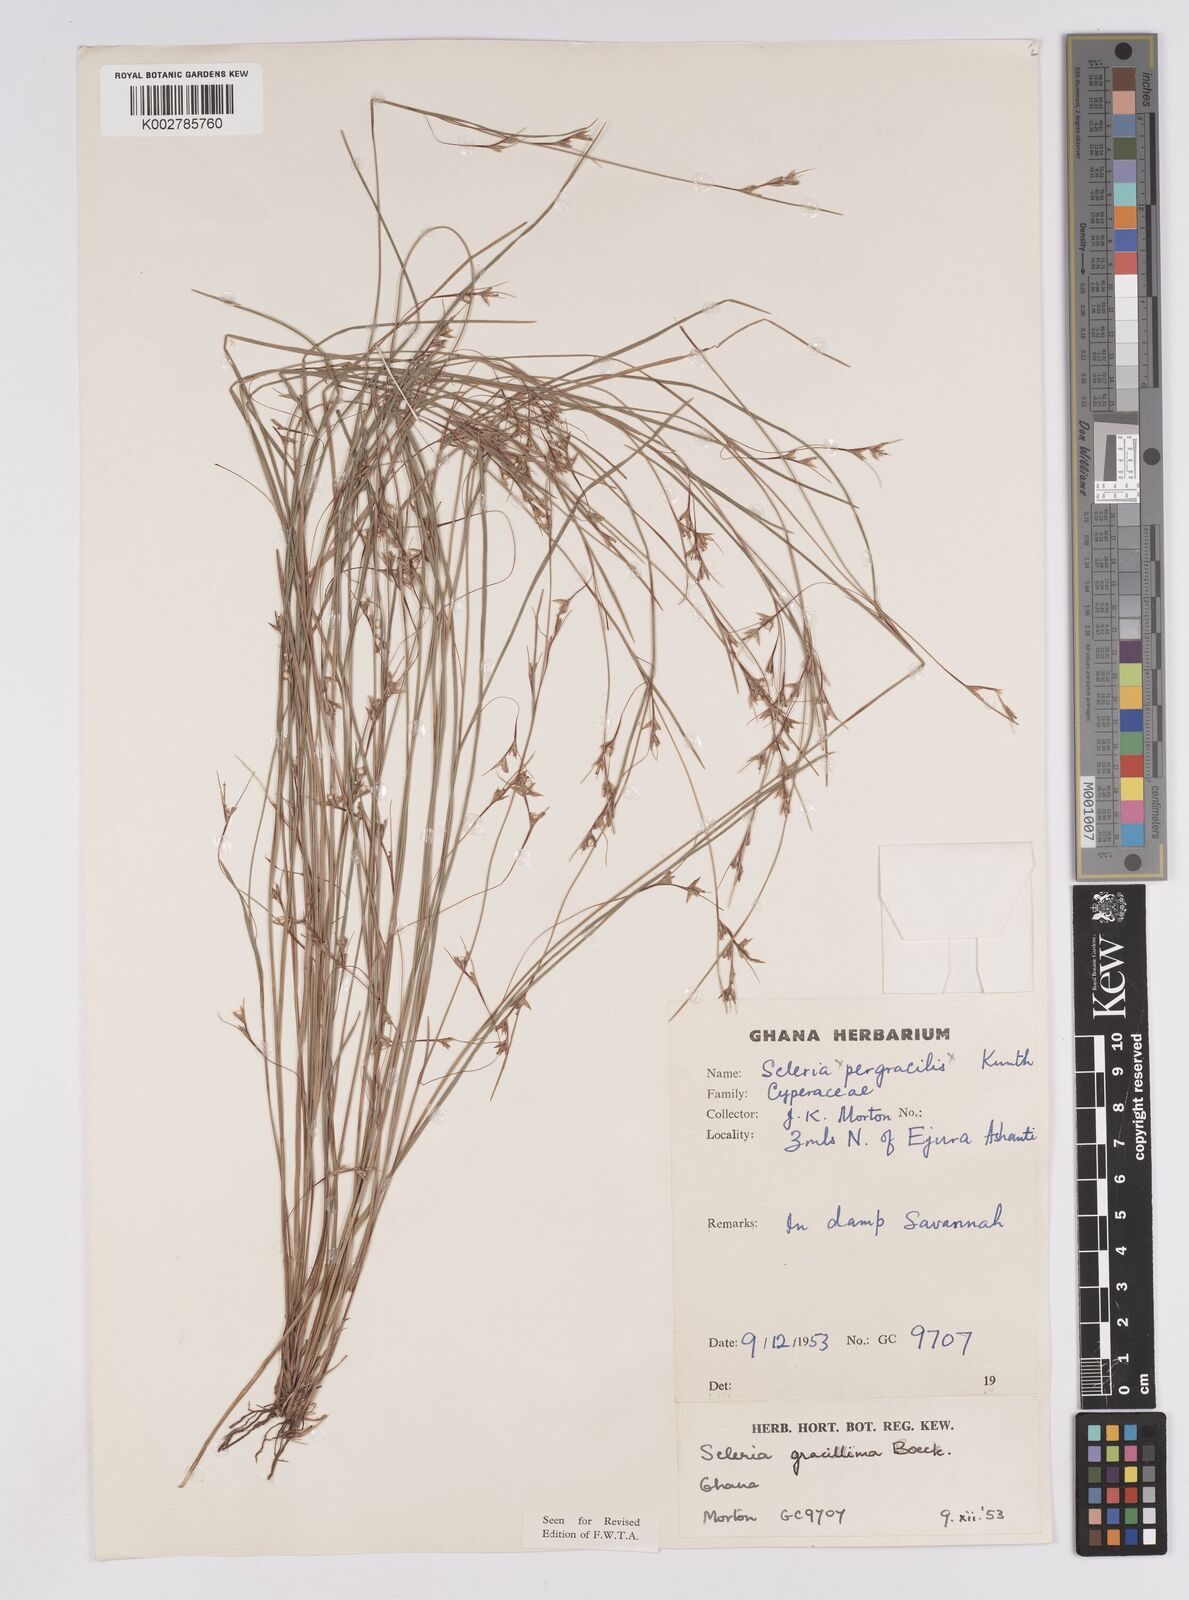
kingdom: Plantae
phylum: Tracheophyta
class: Liliopsida
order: Poales
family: Cyperaceae
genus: Scleria
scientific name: Scleria gracillima
